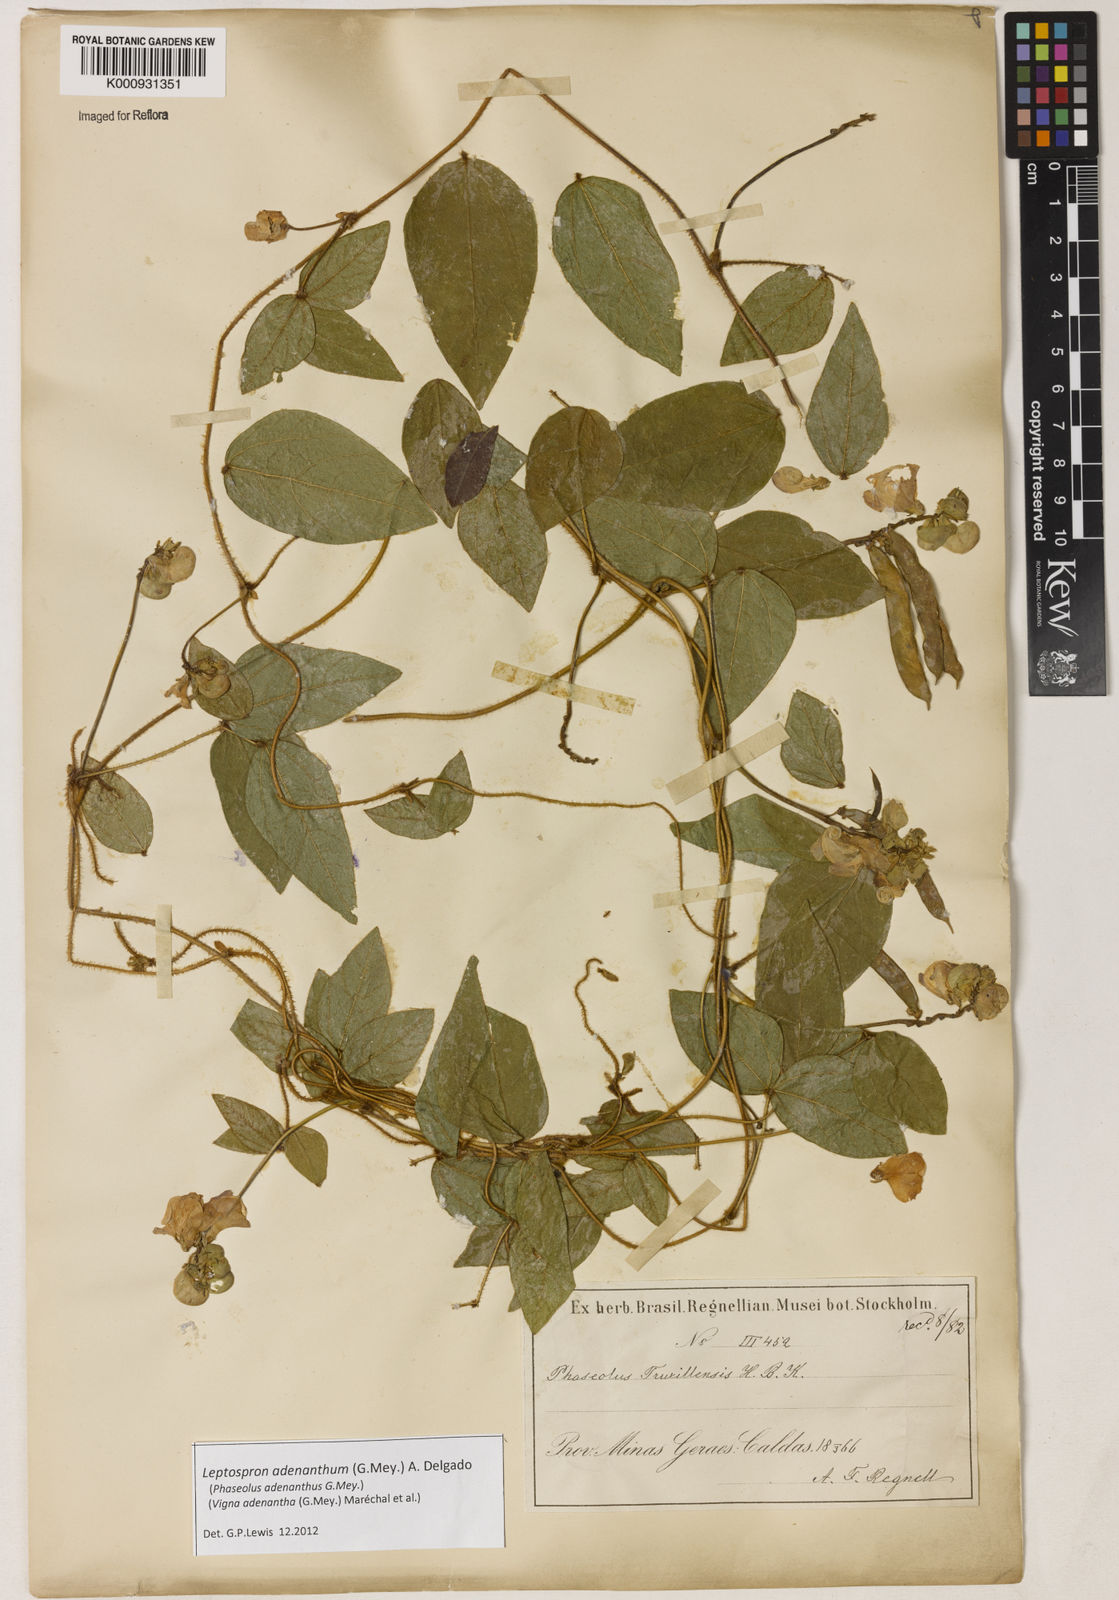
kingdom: Plantae
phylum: Tracheophyta
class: Magnoliopsida
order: Fabales
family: Fabaceae
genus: Leptospron
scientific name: Leptospron adenanthum
